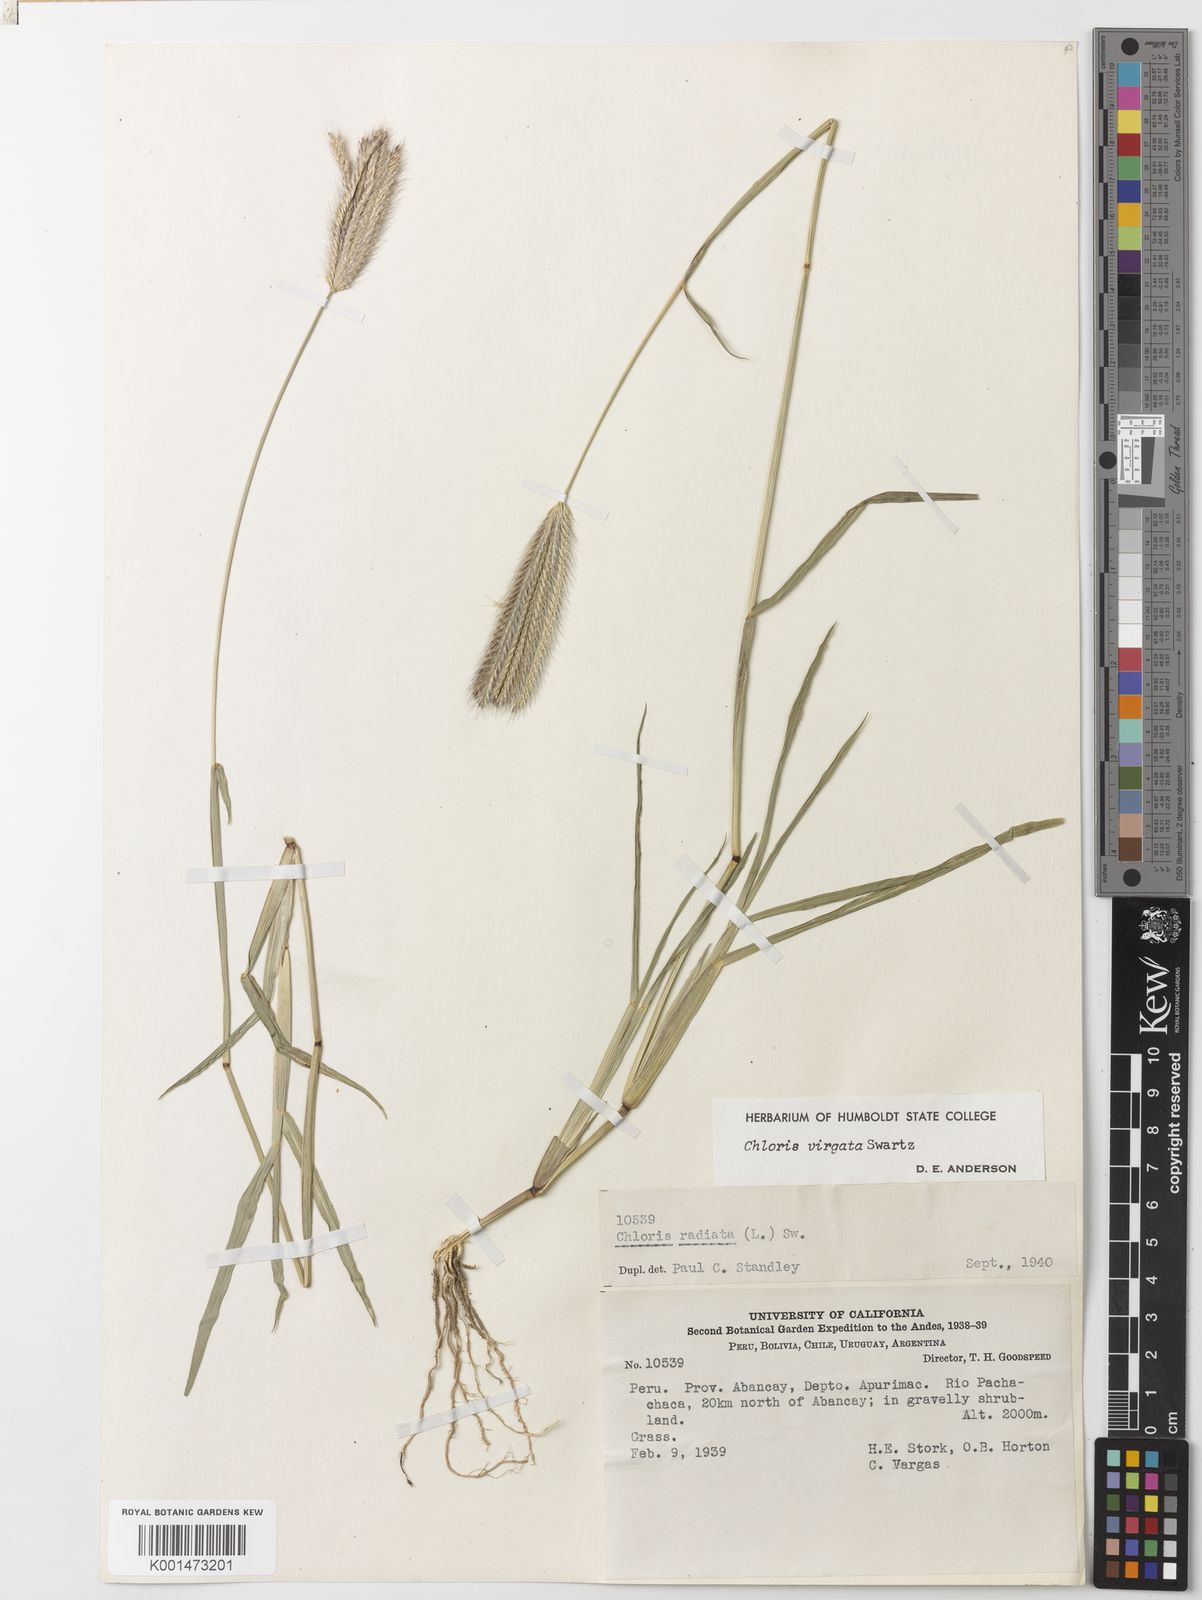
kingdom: Plantae
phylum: Tracheophyta
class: Liliopsida
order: Poales
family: Poaceae
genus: Chloris
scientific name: Chloris virgata
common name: Feathery rhodes-grass
